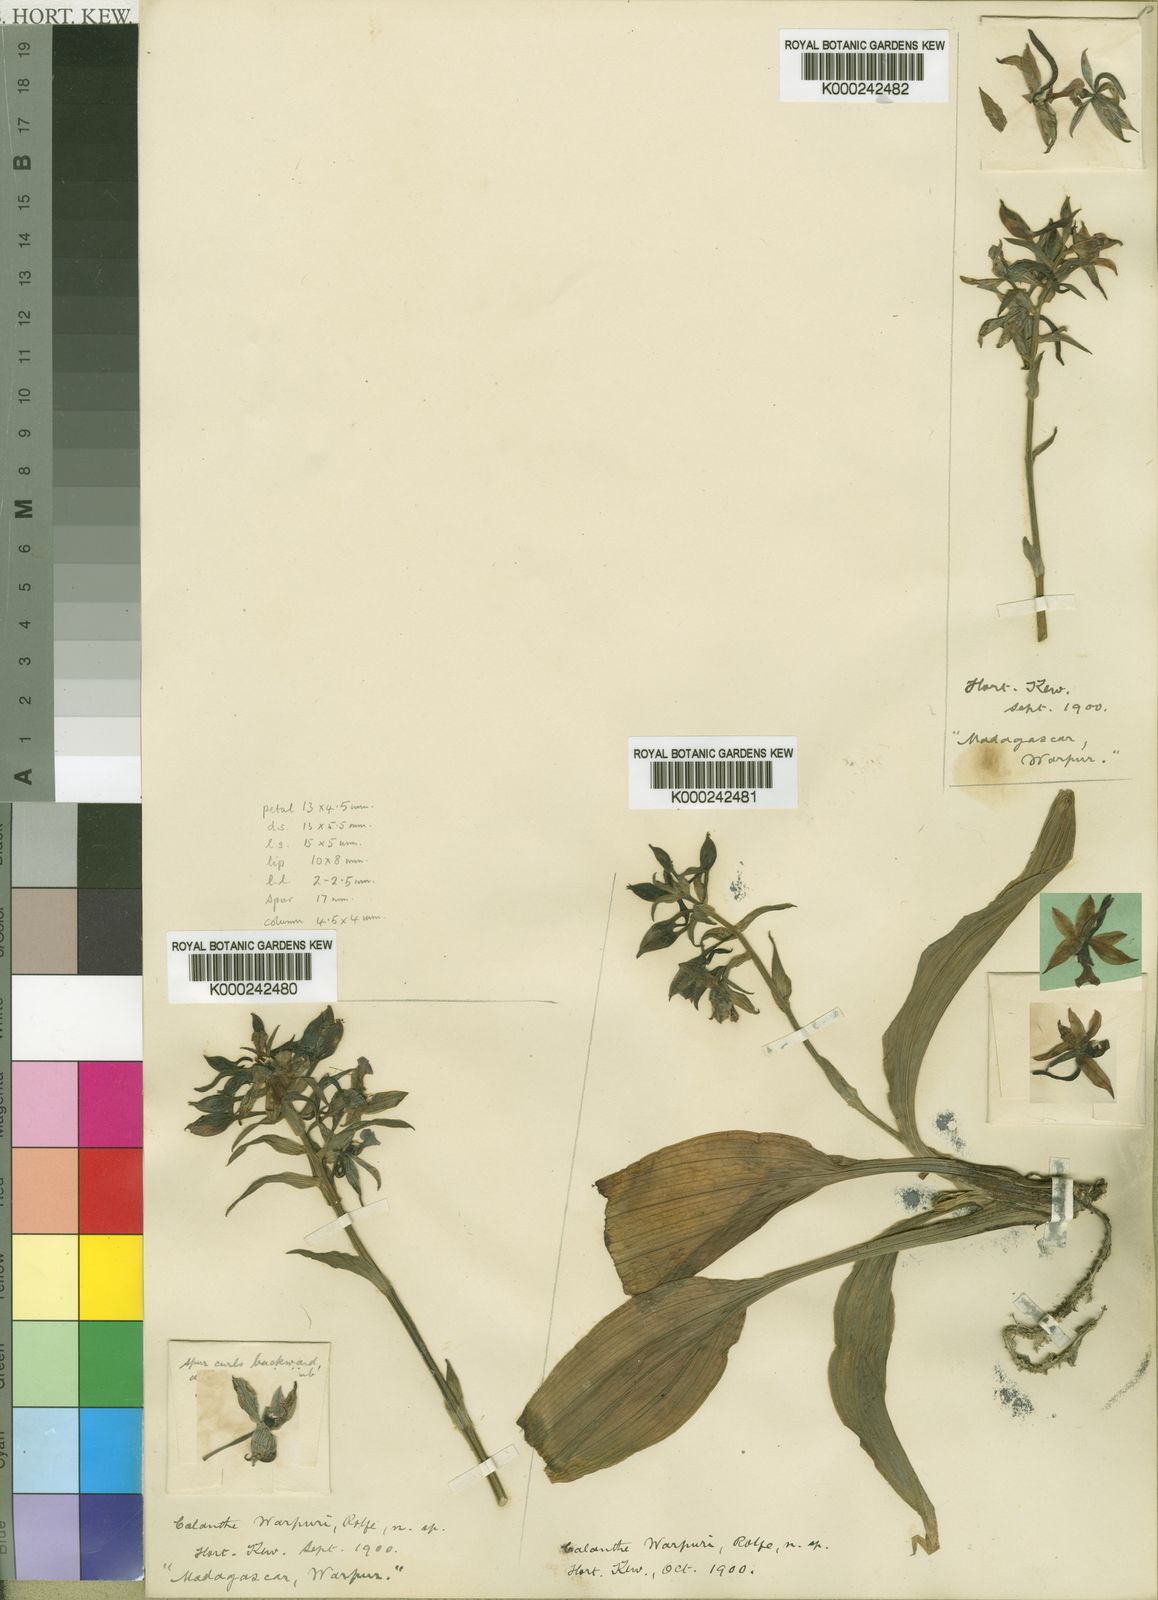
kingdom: Plantae
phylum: Tracheophyta
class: Liliopsida
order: Asparagales
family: Orchidaceae
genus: Calanthe
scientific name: Calanthe
